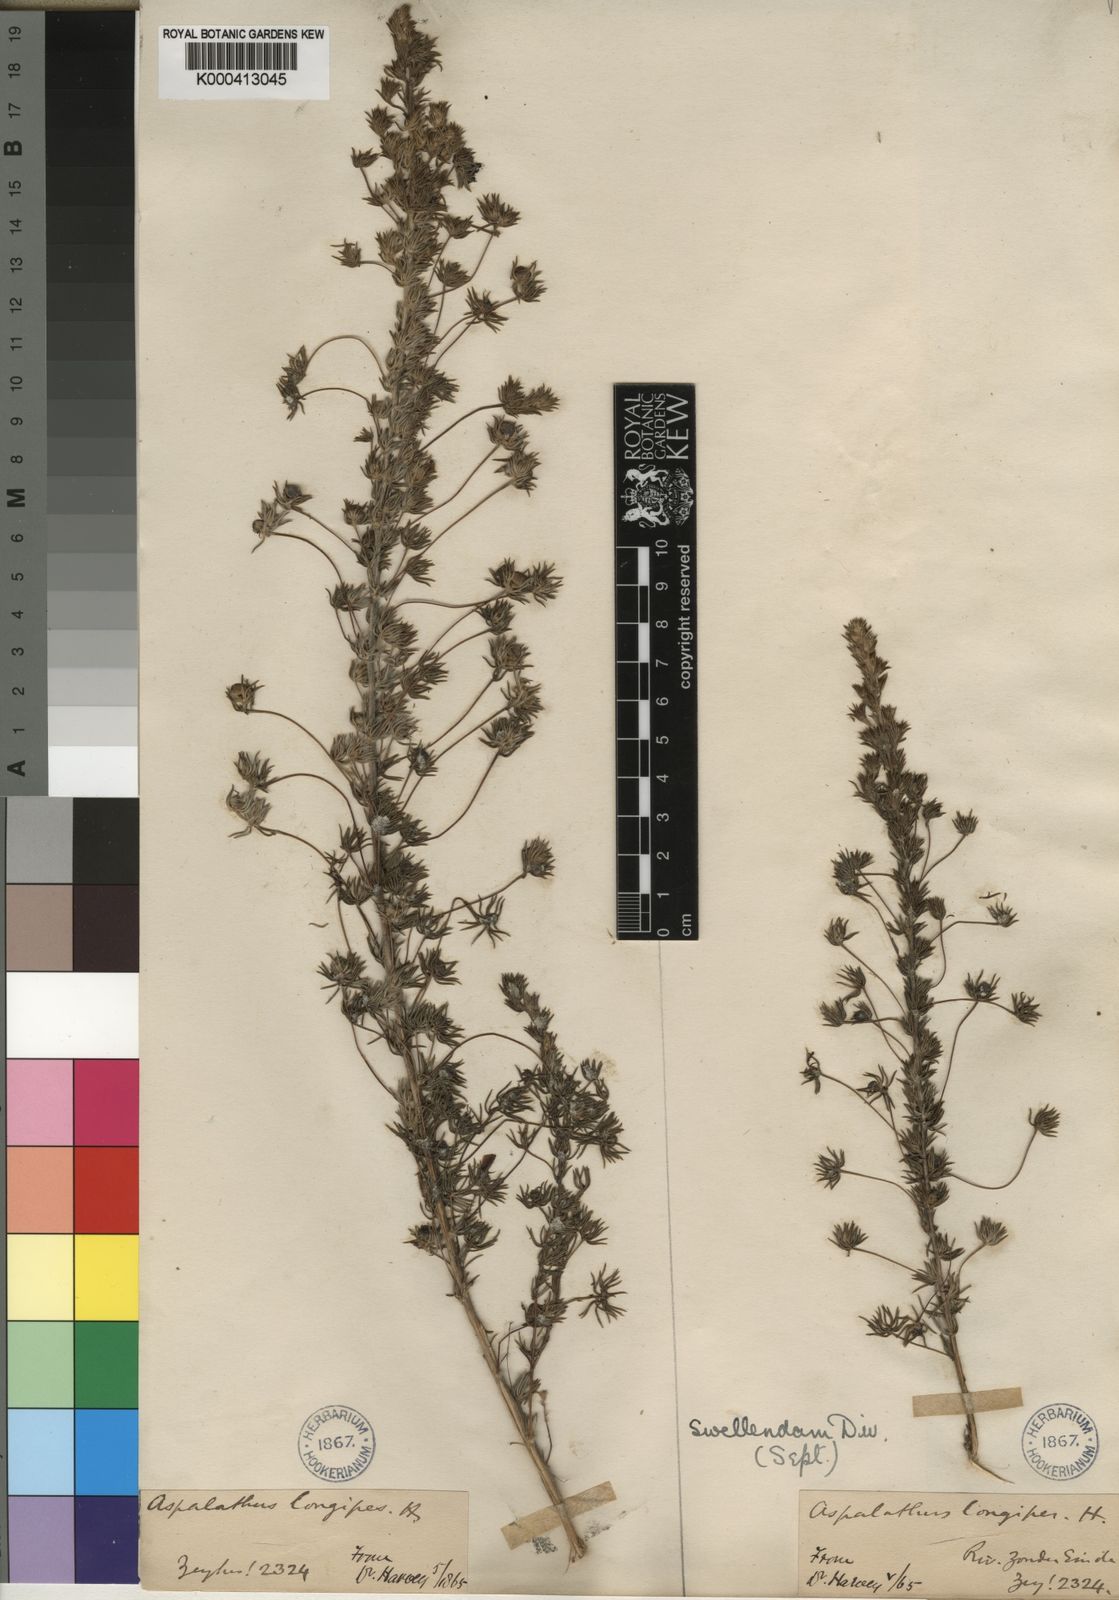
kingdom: Plantae
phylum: Tracheophyta
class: Magnoliopsida
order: Fabales
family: Fabaceae
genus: Aspalathus
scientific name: Aspalathus longipes
